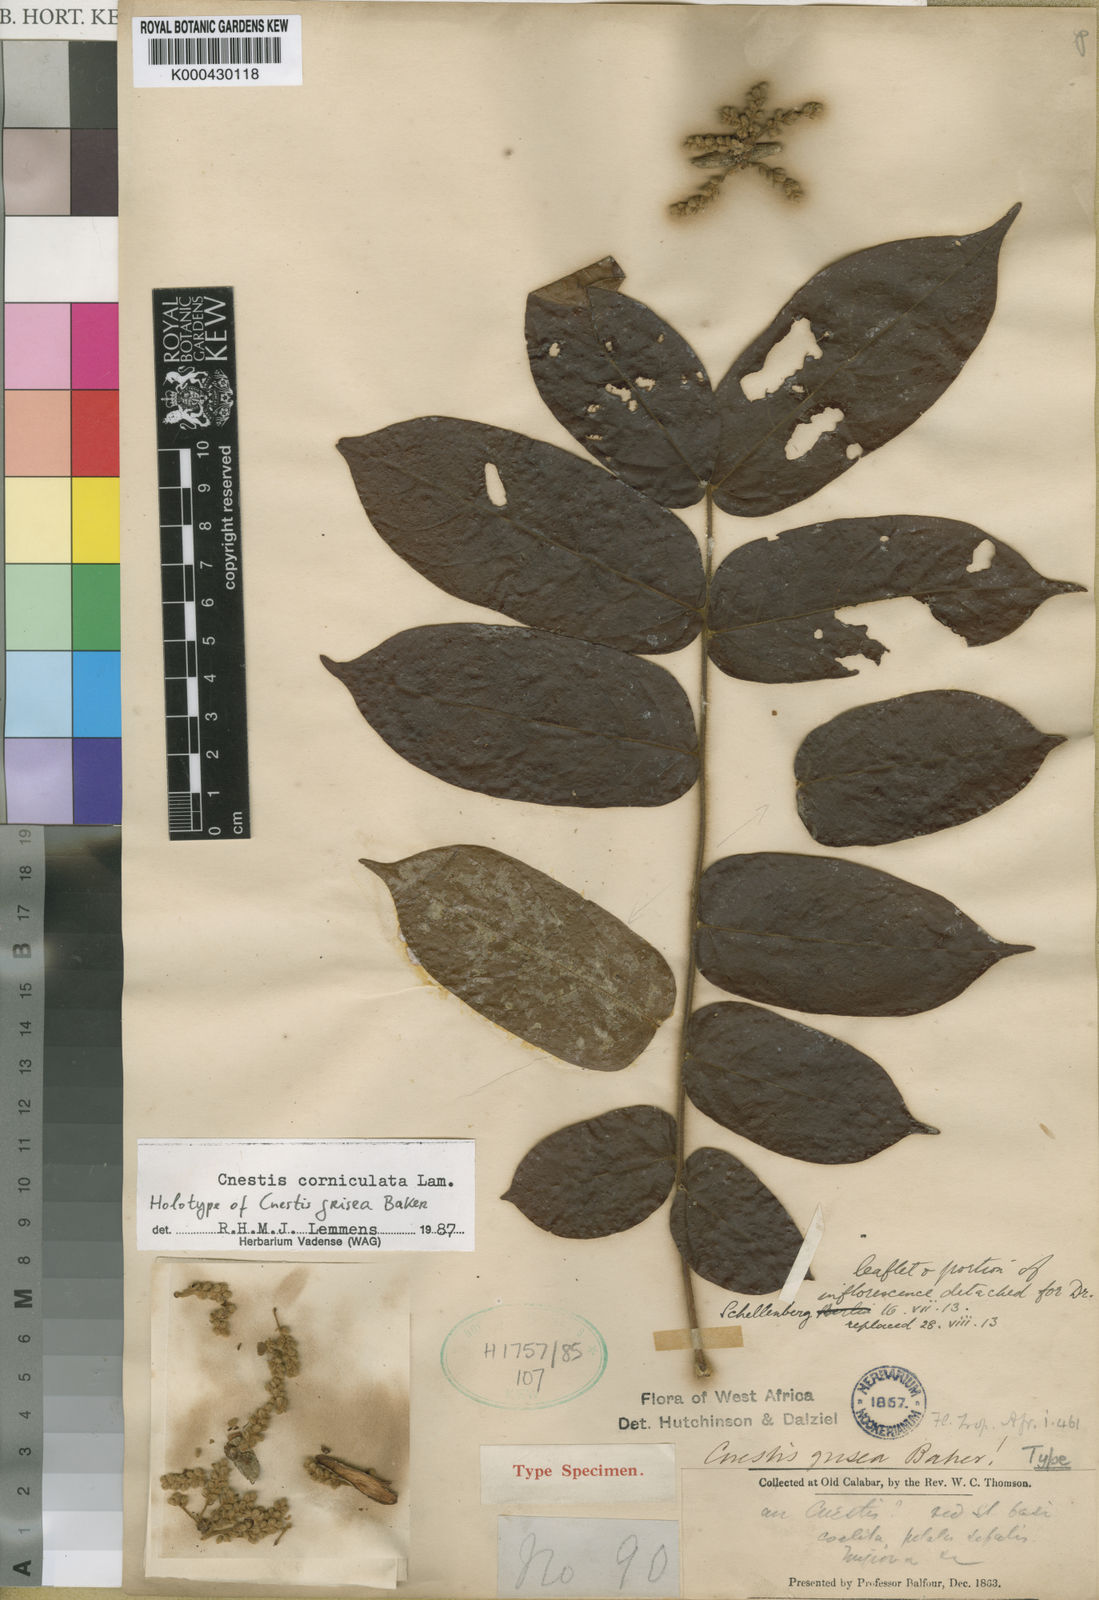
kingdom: Plantae
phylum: Tracheophyta
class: Magnoliopsida
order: Oxalidales
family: Connaraceae
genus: Cnestis
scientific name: Cnestis corniculata
